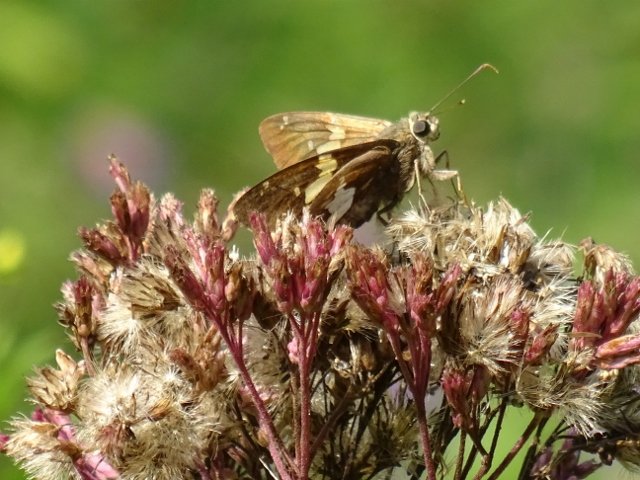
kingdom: Animalia
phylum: Arthropoda
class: Insecta
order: Lepidoptera
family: Hesperiidae
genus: Epargyreus
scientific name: Epargyreus clarus
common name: Silver-spotted Skipper
